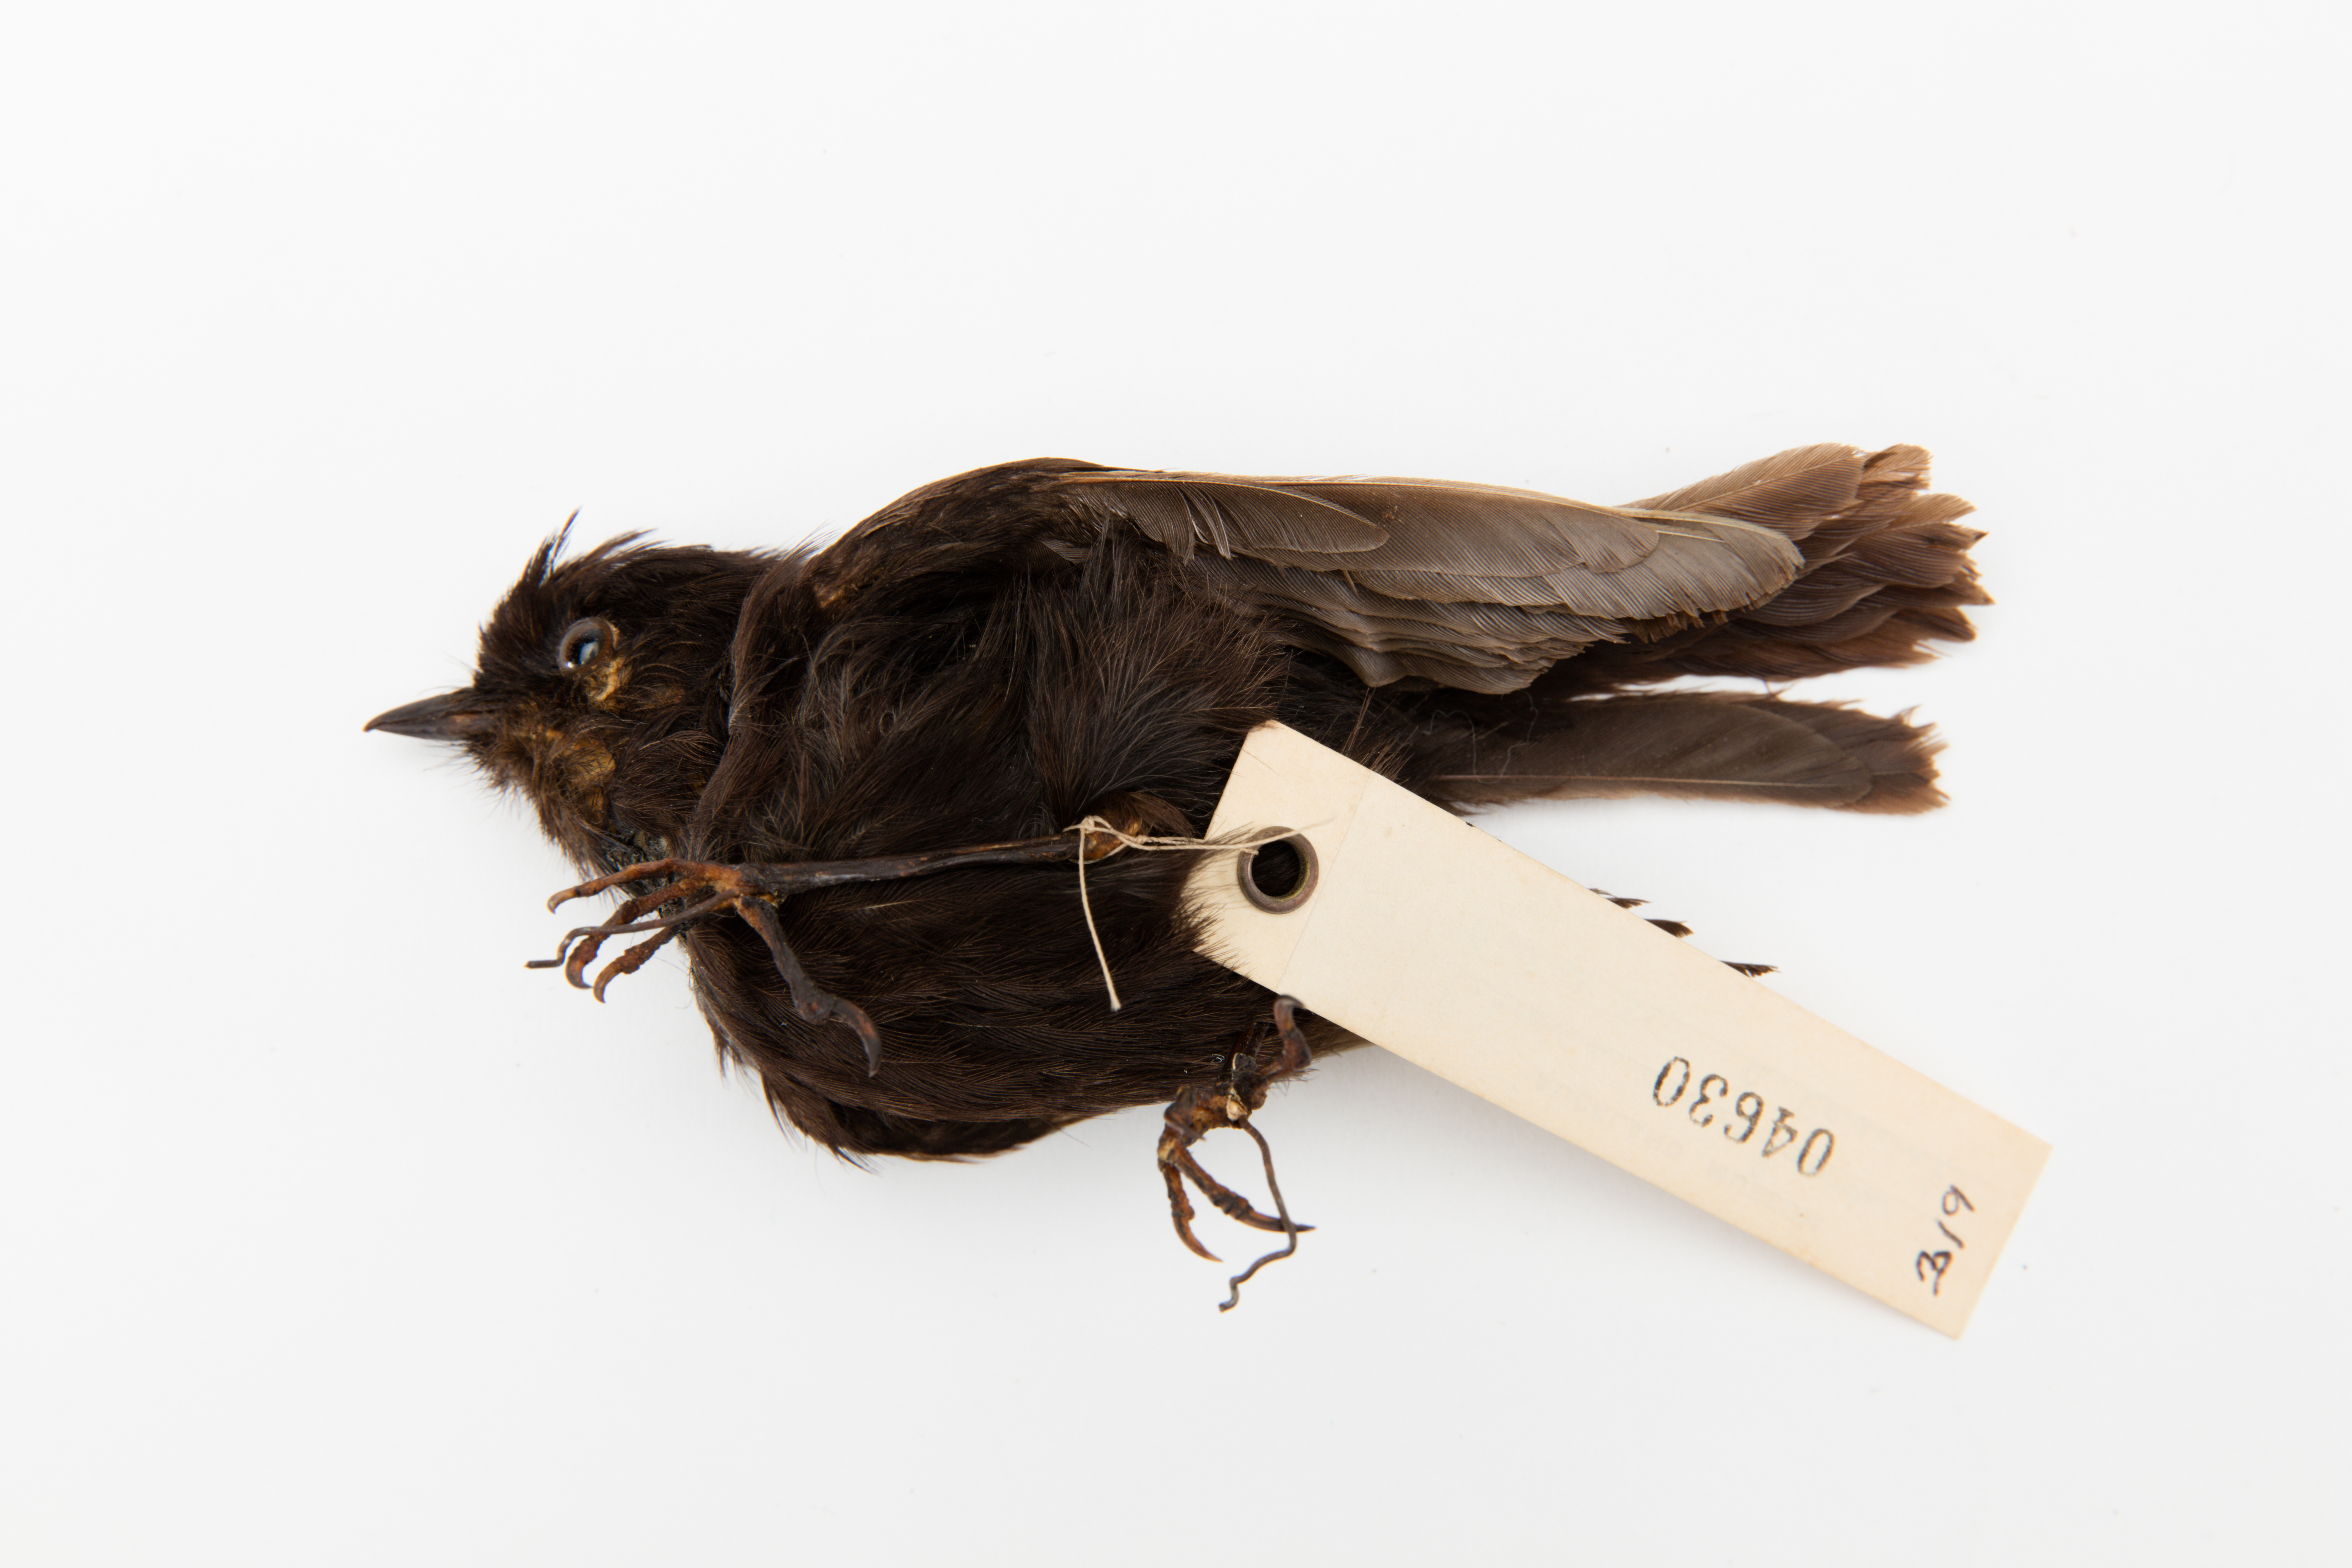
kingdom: Animalia
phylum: Chordata
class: Aves
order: Passeriformes
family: Petroicidae
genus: Petroica
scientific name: Petroica macrocephala
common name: Tomtit
